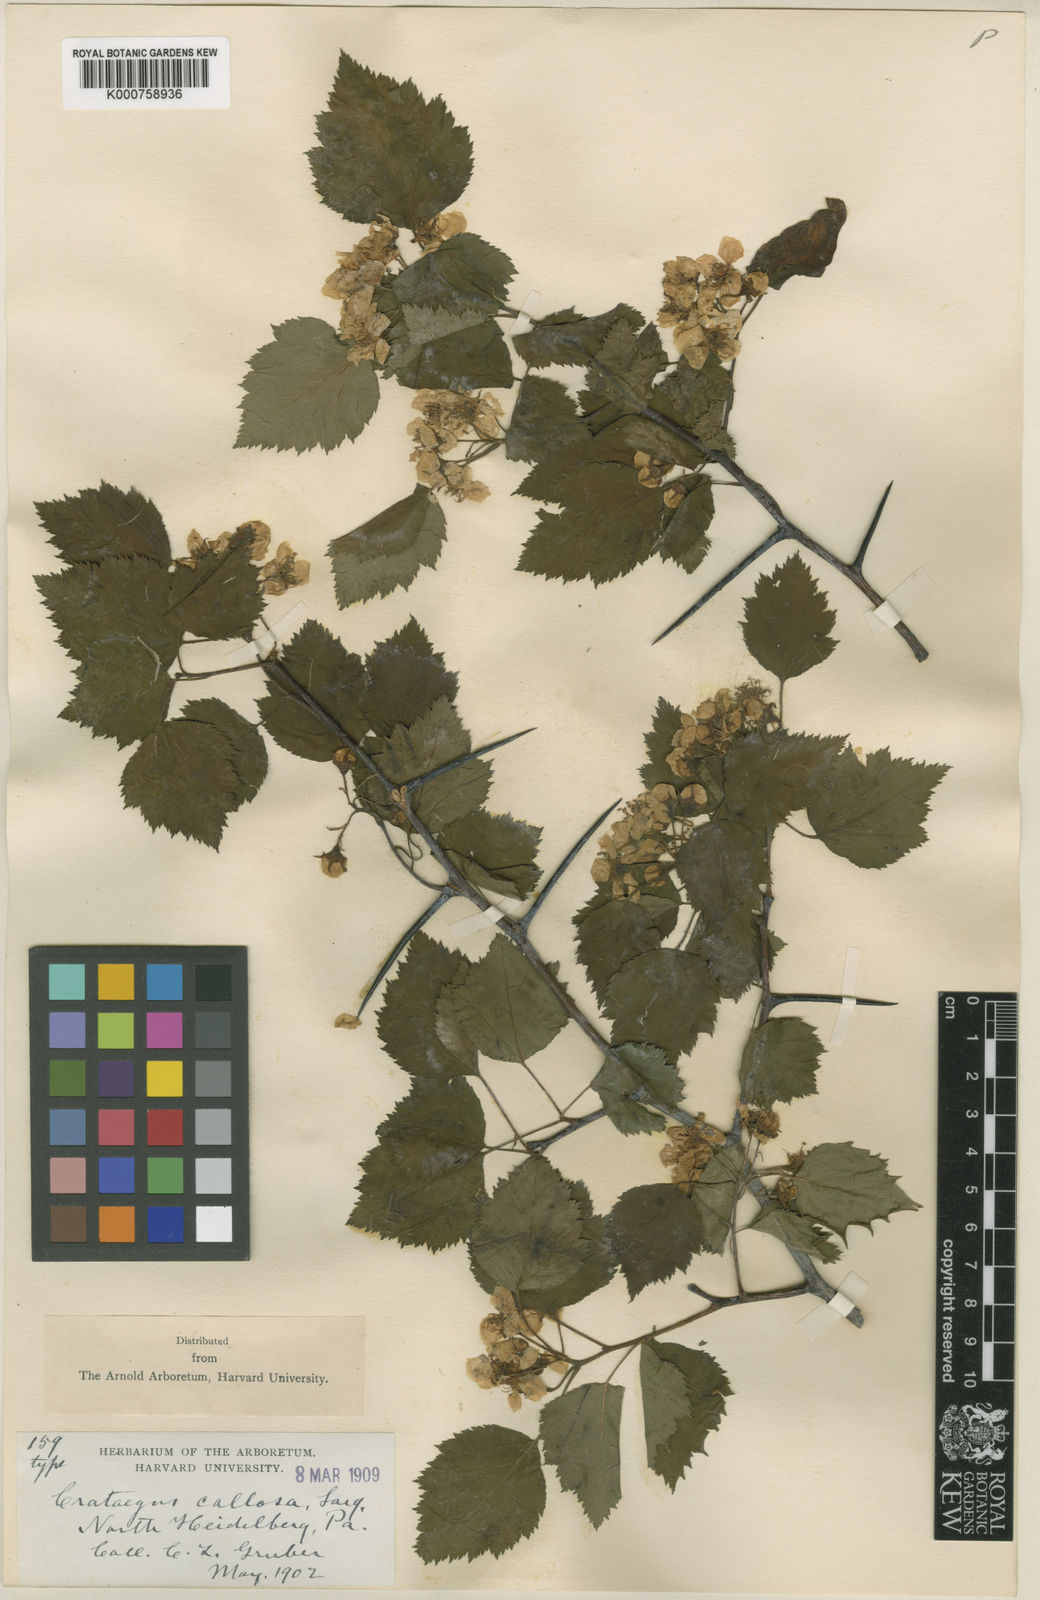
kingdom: Plantae
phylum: Tracheophyta
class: Magnoliopsida
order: Rosales
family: Rosaceae
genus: Crataegus
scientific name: Crataegus callosa
